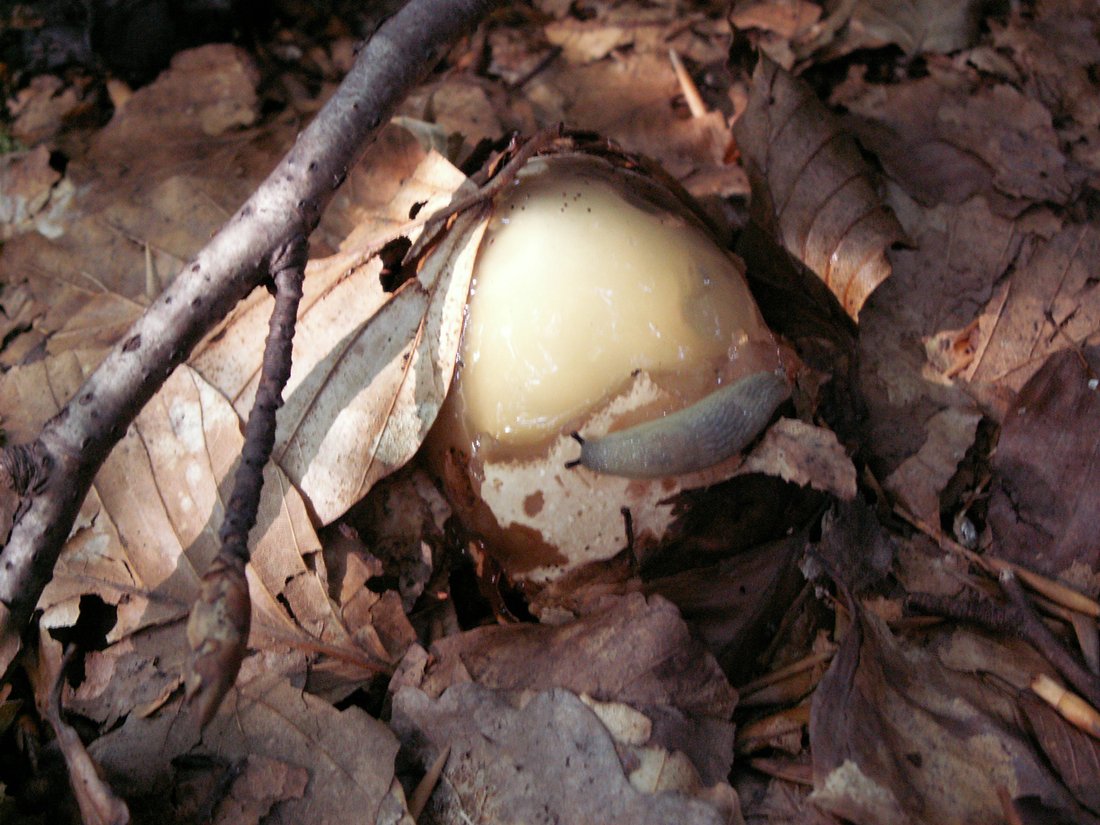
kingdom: Fungi
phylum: Basidiomycota
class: Agaricomycetes
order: Phallales
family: Phallaceae
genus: Phallus
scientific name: Phallus impudicus
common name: almindelig stinksvamp
